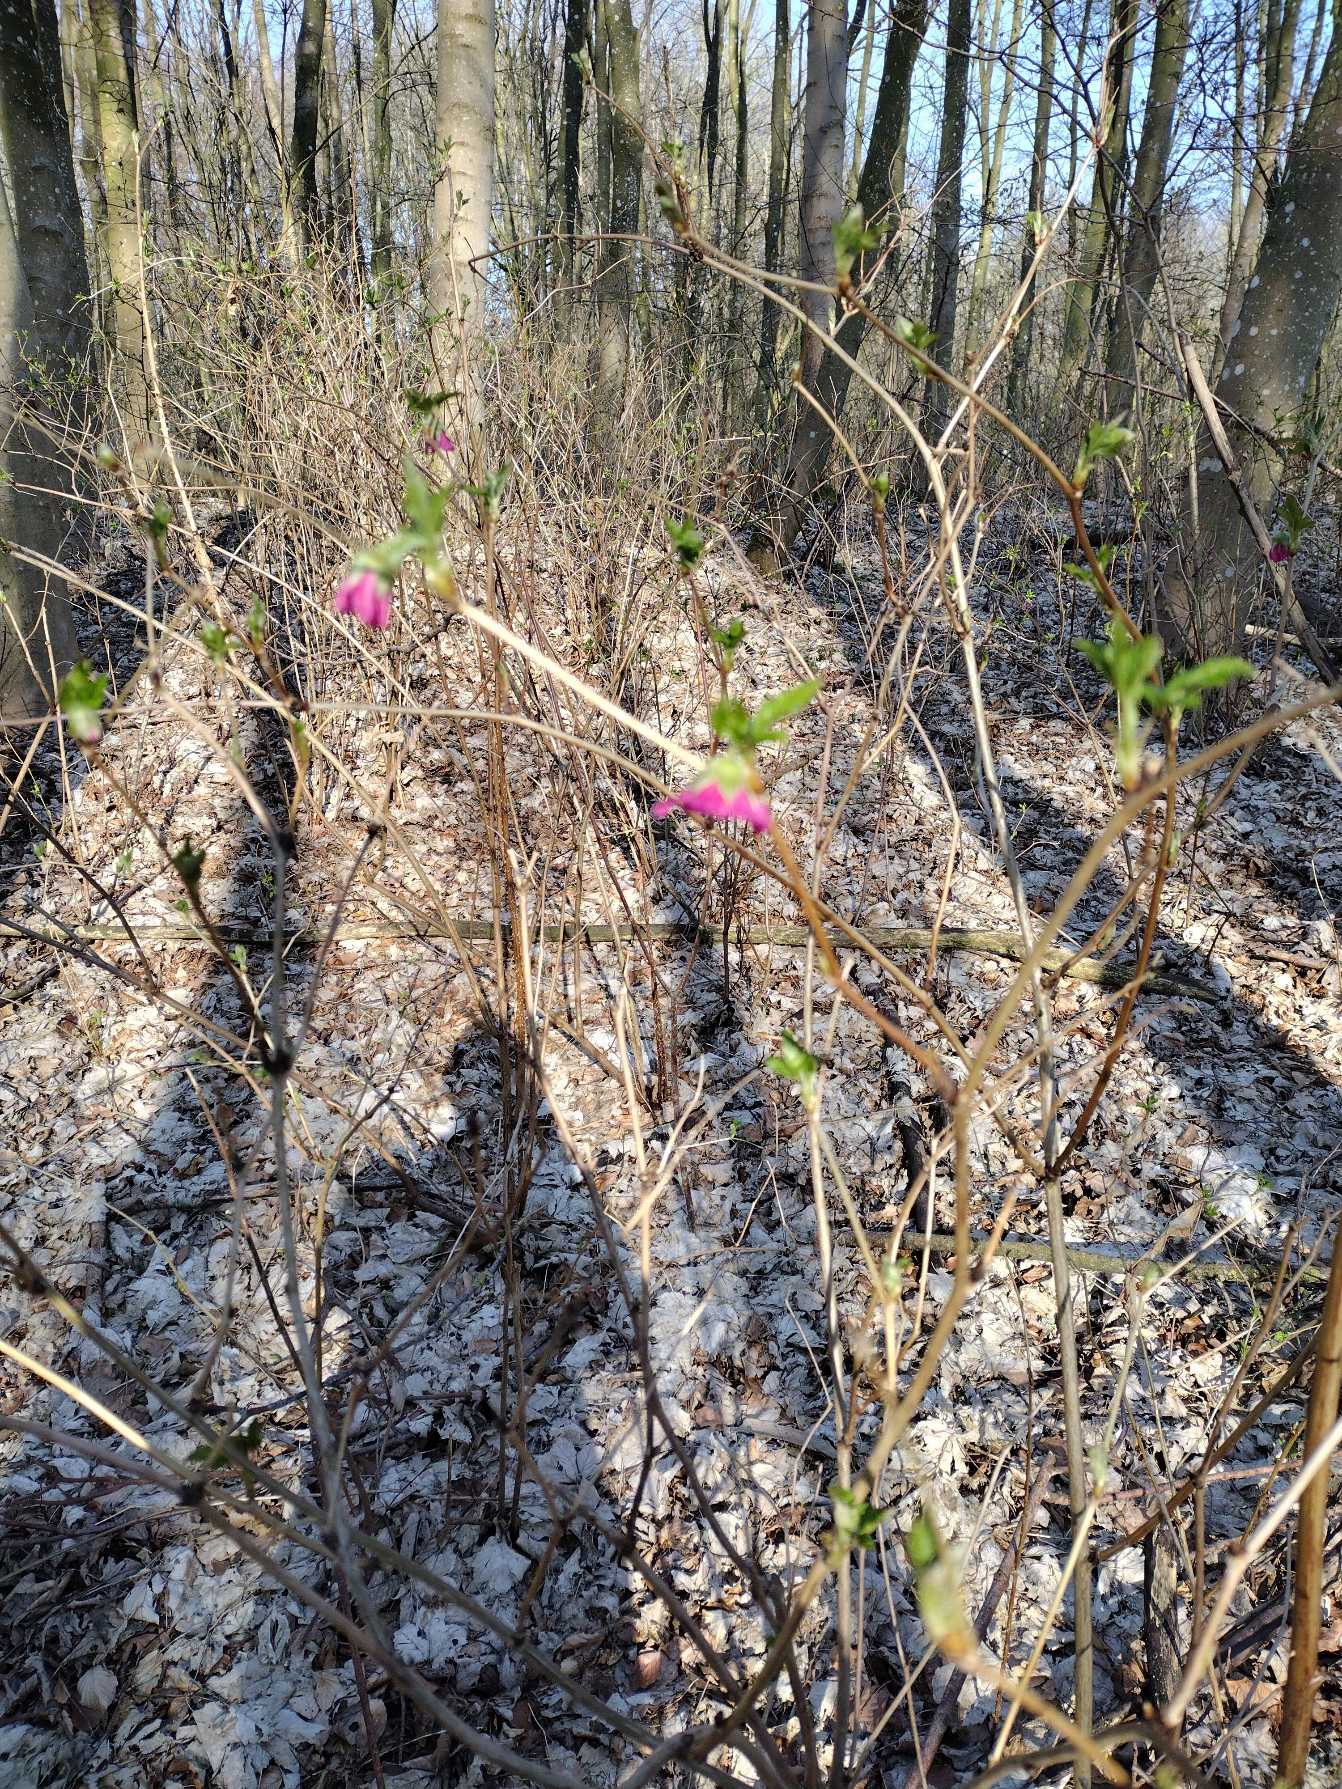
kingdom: Plantae
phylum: Tracheophyta
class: Magnoliopsida
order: Rosales
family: Rosaceae
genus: Rubus
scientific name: Rubus spectabilis
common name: Laksebær
